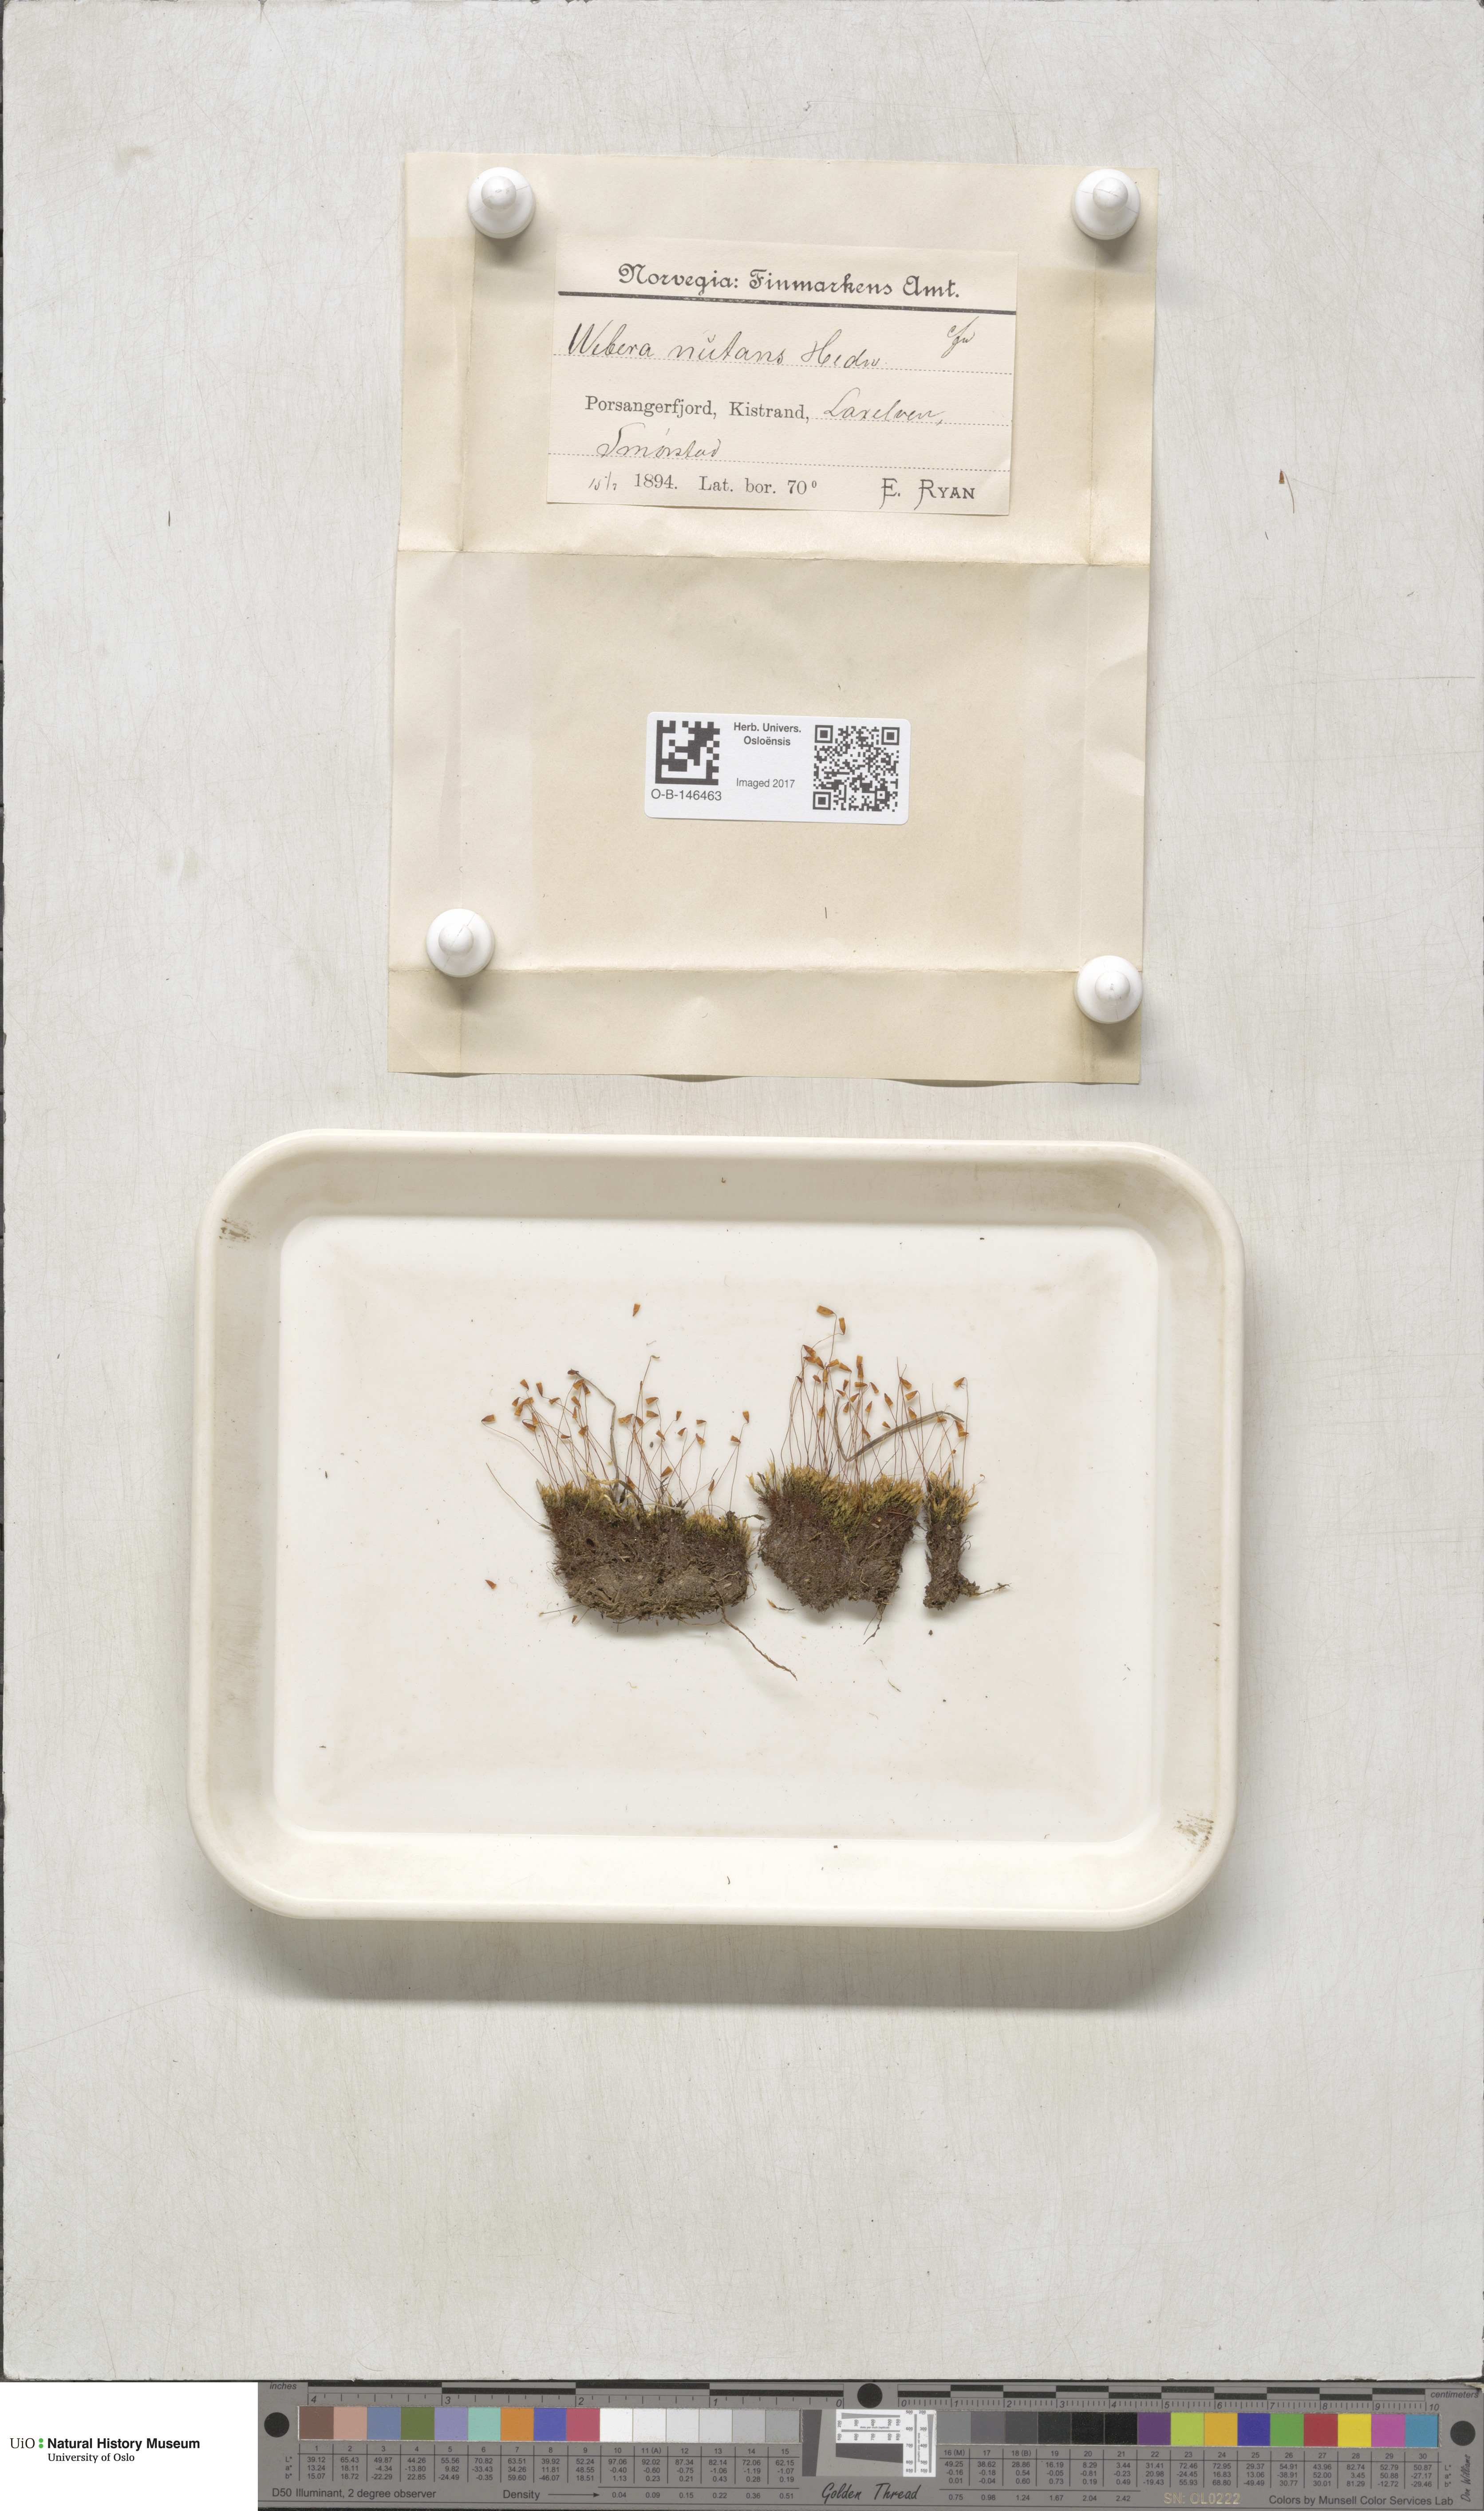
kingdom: Plantae
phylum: Bryophyta
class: Bryopsida
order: Bryales
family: Mniaceae
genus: Pohlia
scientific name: Pohlia nutans
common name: Nodding thread-moss
